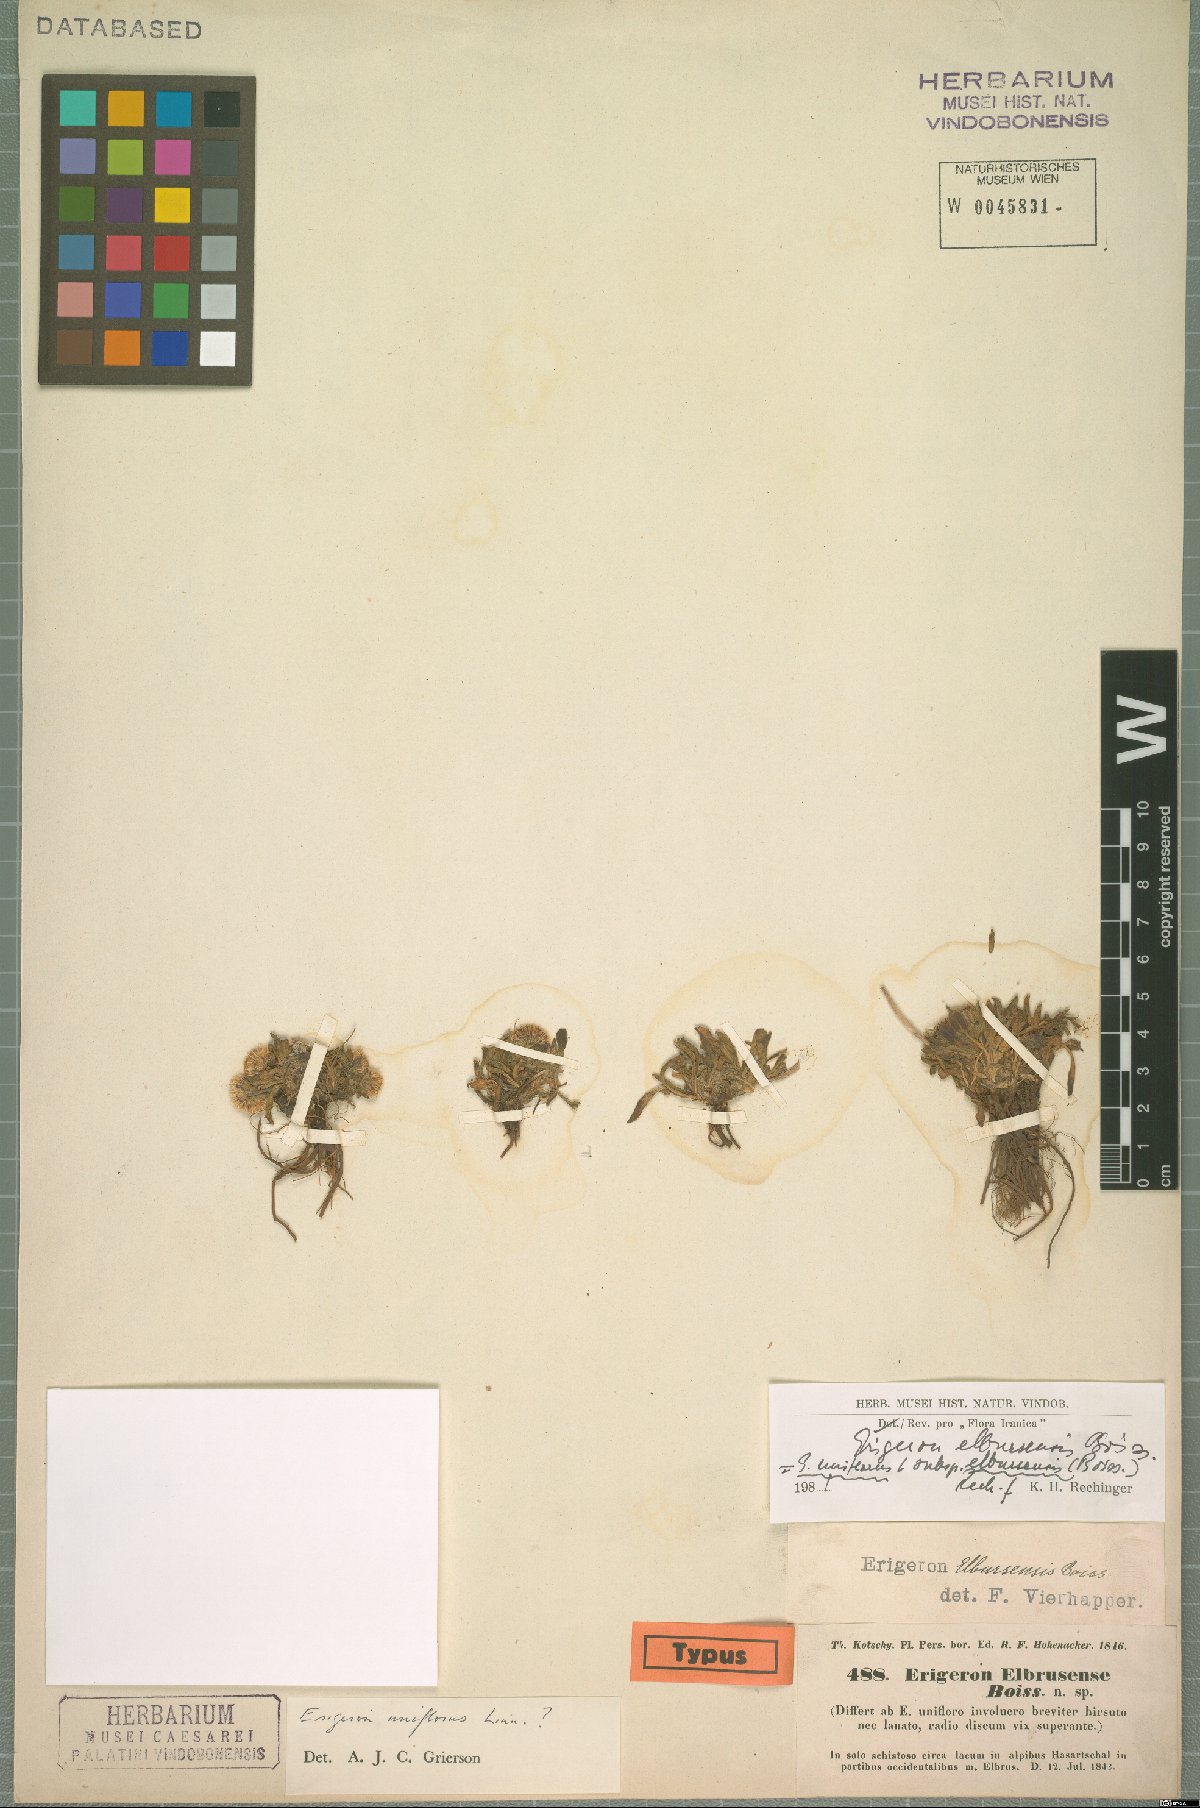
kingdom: Plantae
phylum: Tracheophyta
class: Magnoliopsida
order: Asterales
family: Asteraceae
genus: Erigeron
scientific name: Erigeron elborsensis
